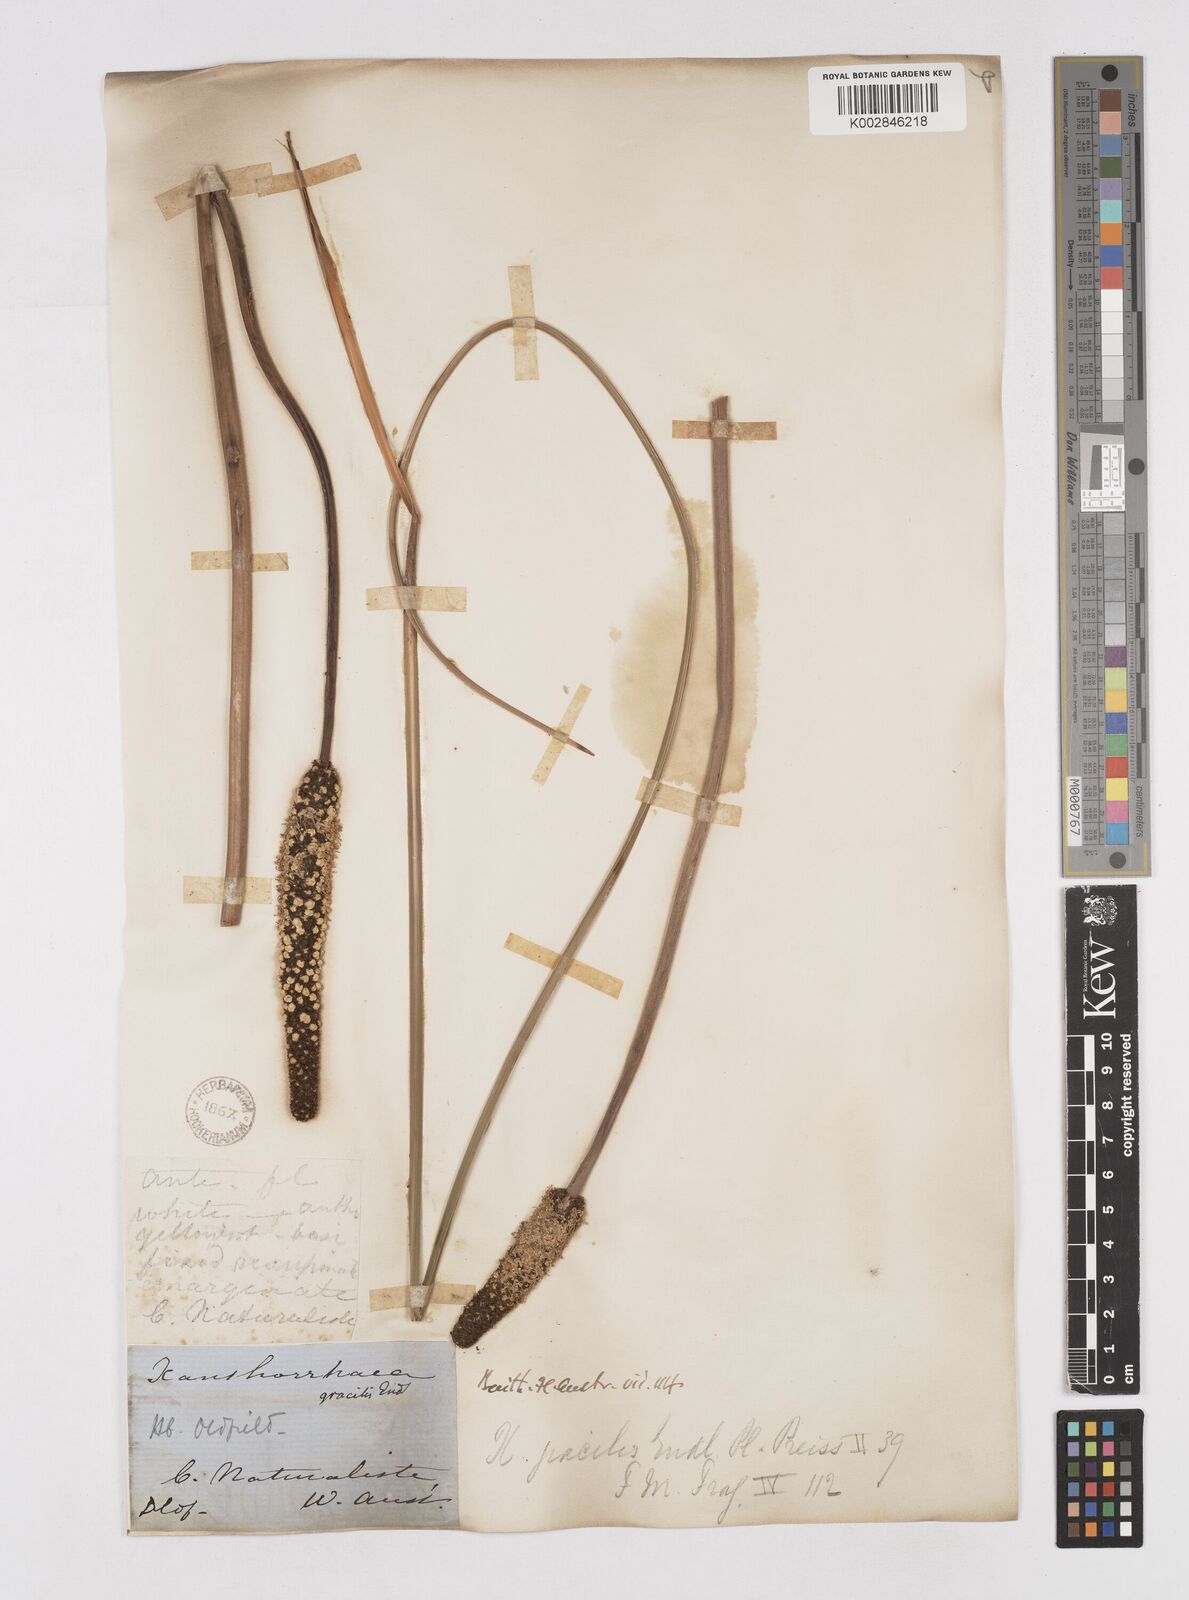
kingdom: Plantae
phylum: Tracheophyta
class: Liliopsida
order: Asparagales
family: Asphodelaceae
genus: Xanthorrhoea
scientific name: Xanthorrhoea gracilis
